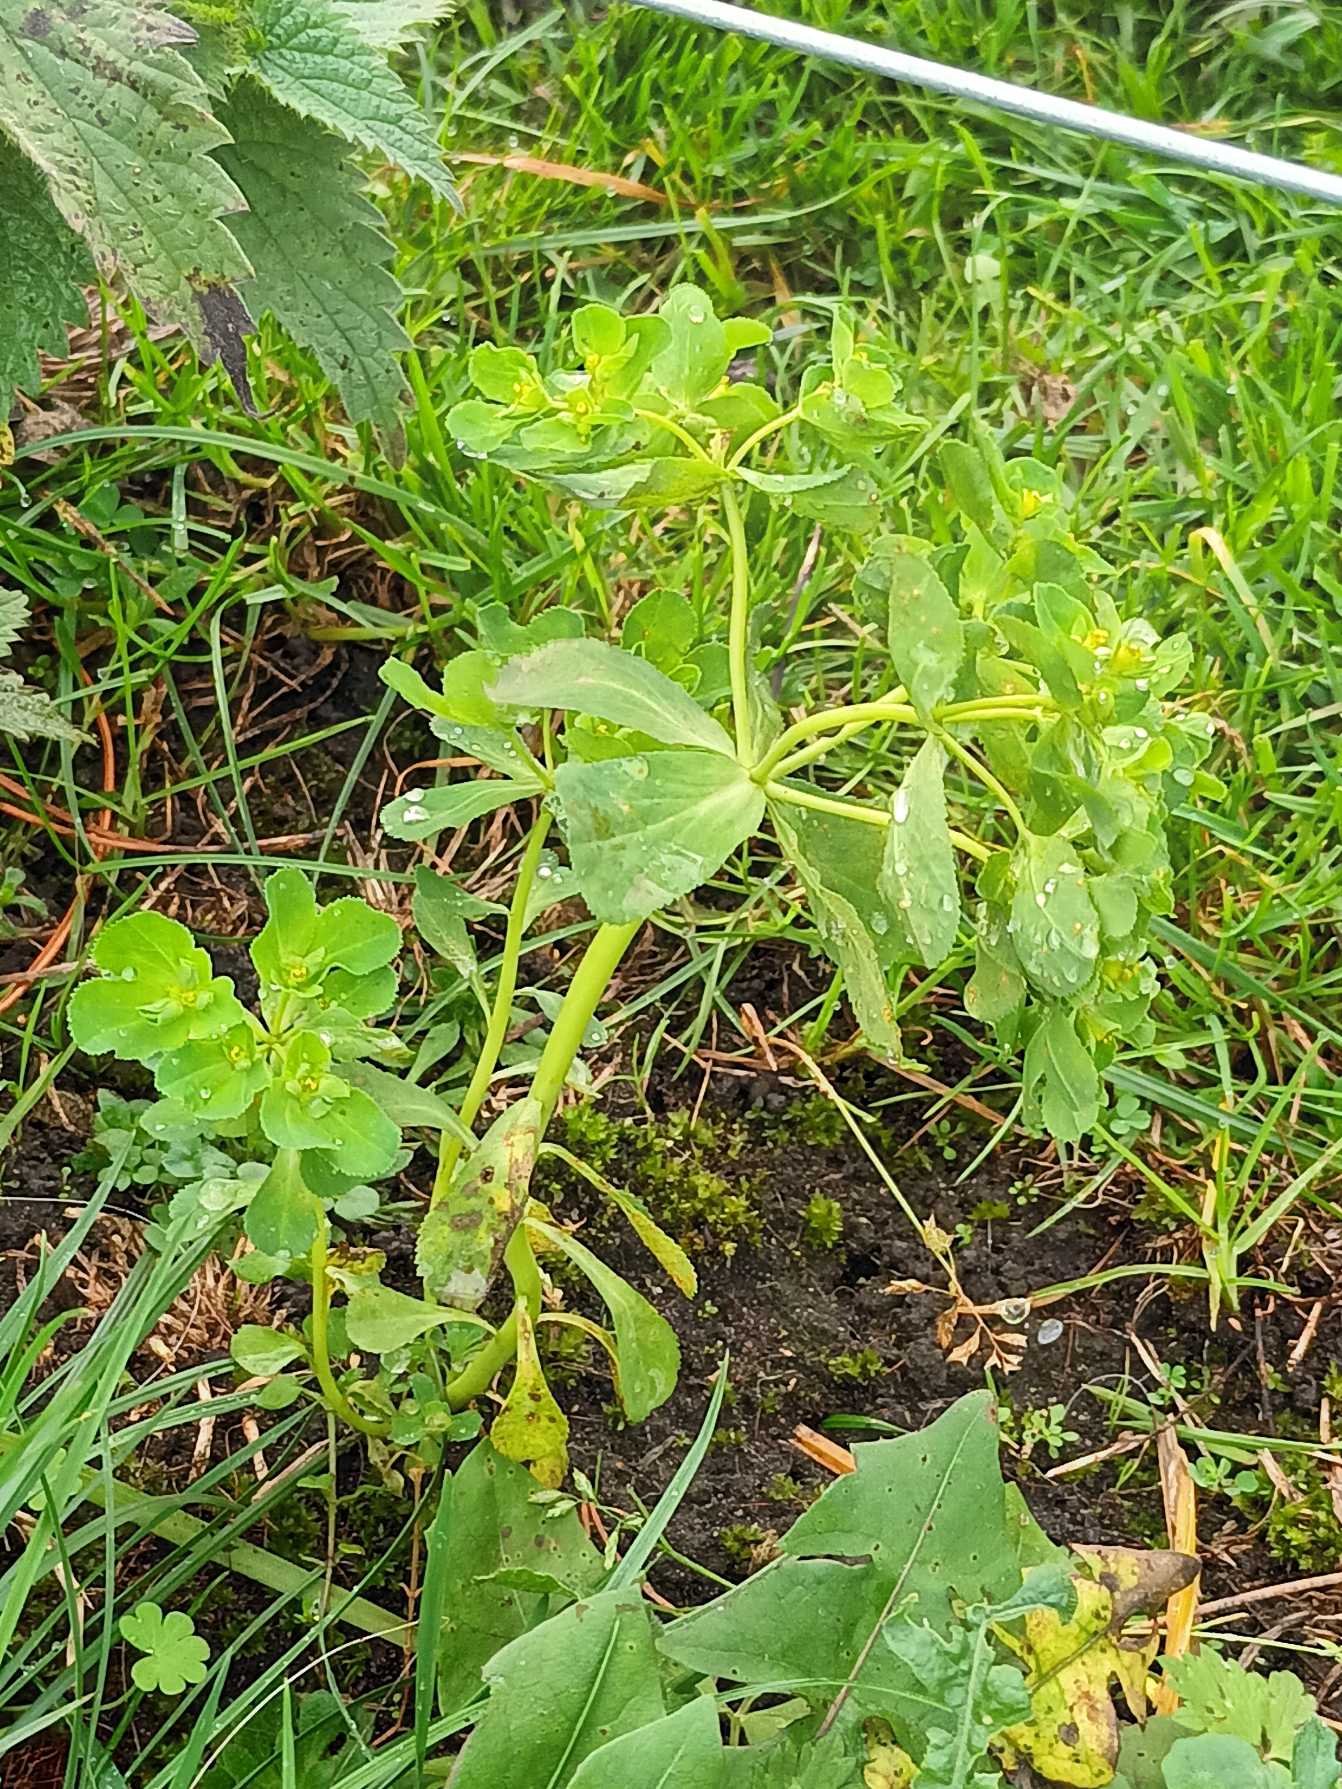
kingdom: Plantae
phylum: Tracheophyta
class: Magnoliopsida
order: Malpighiales
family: Euphorbiaceae
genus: Euphorbia
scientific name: Euphorbia helioscopia
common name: Skærm-vortemælk
